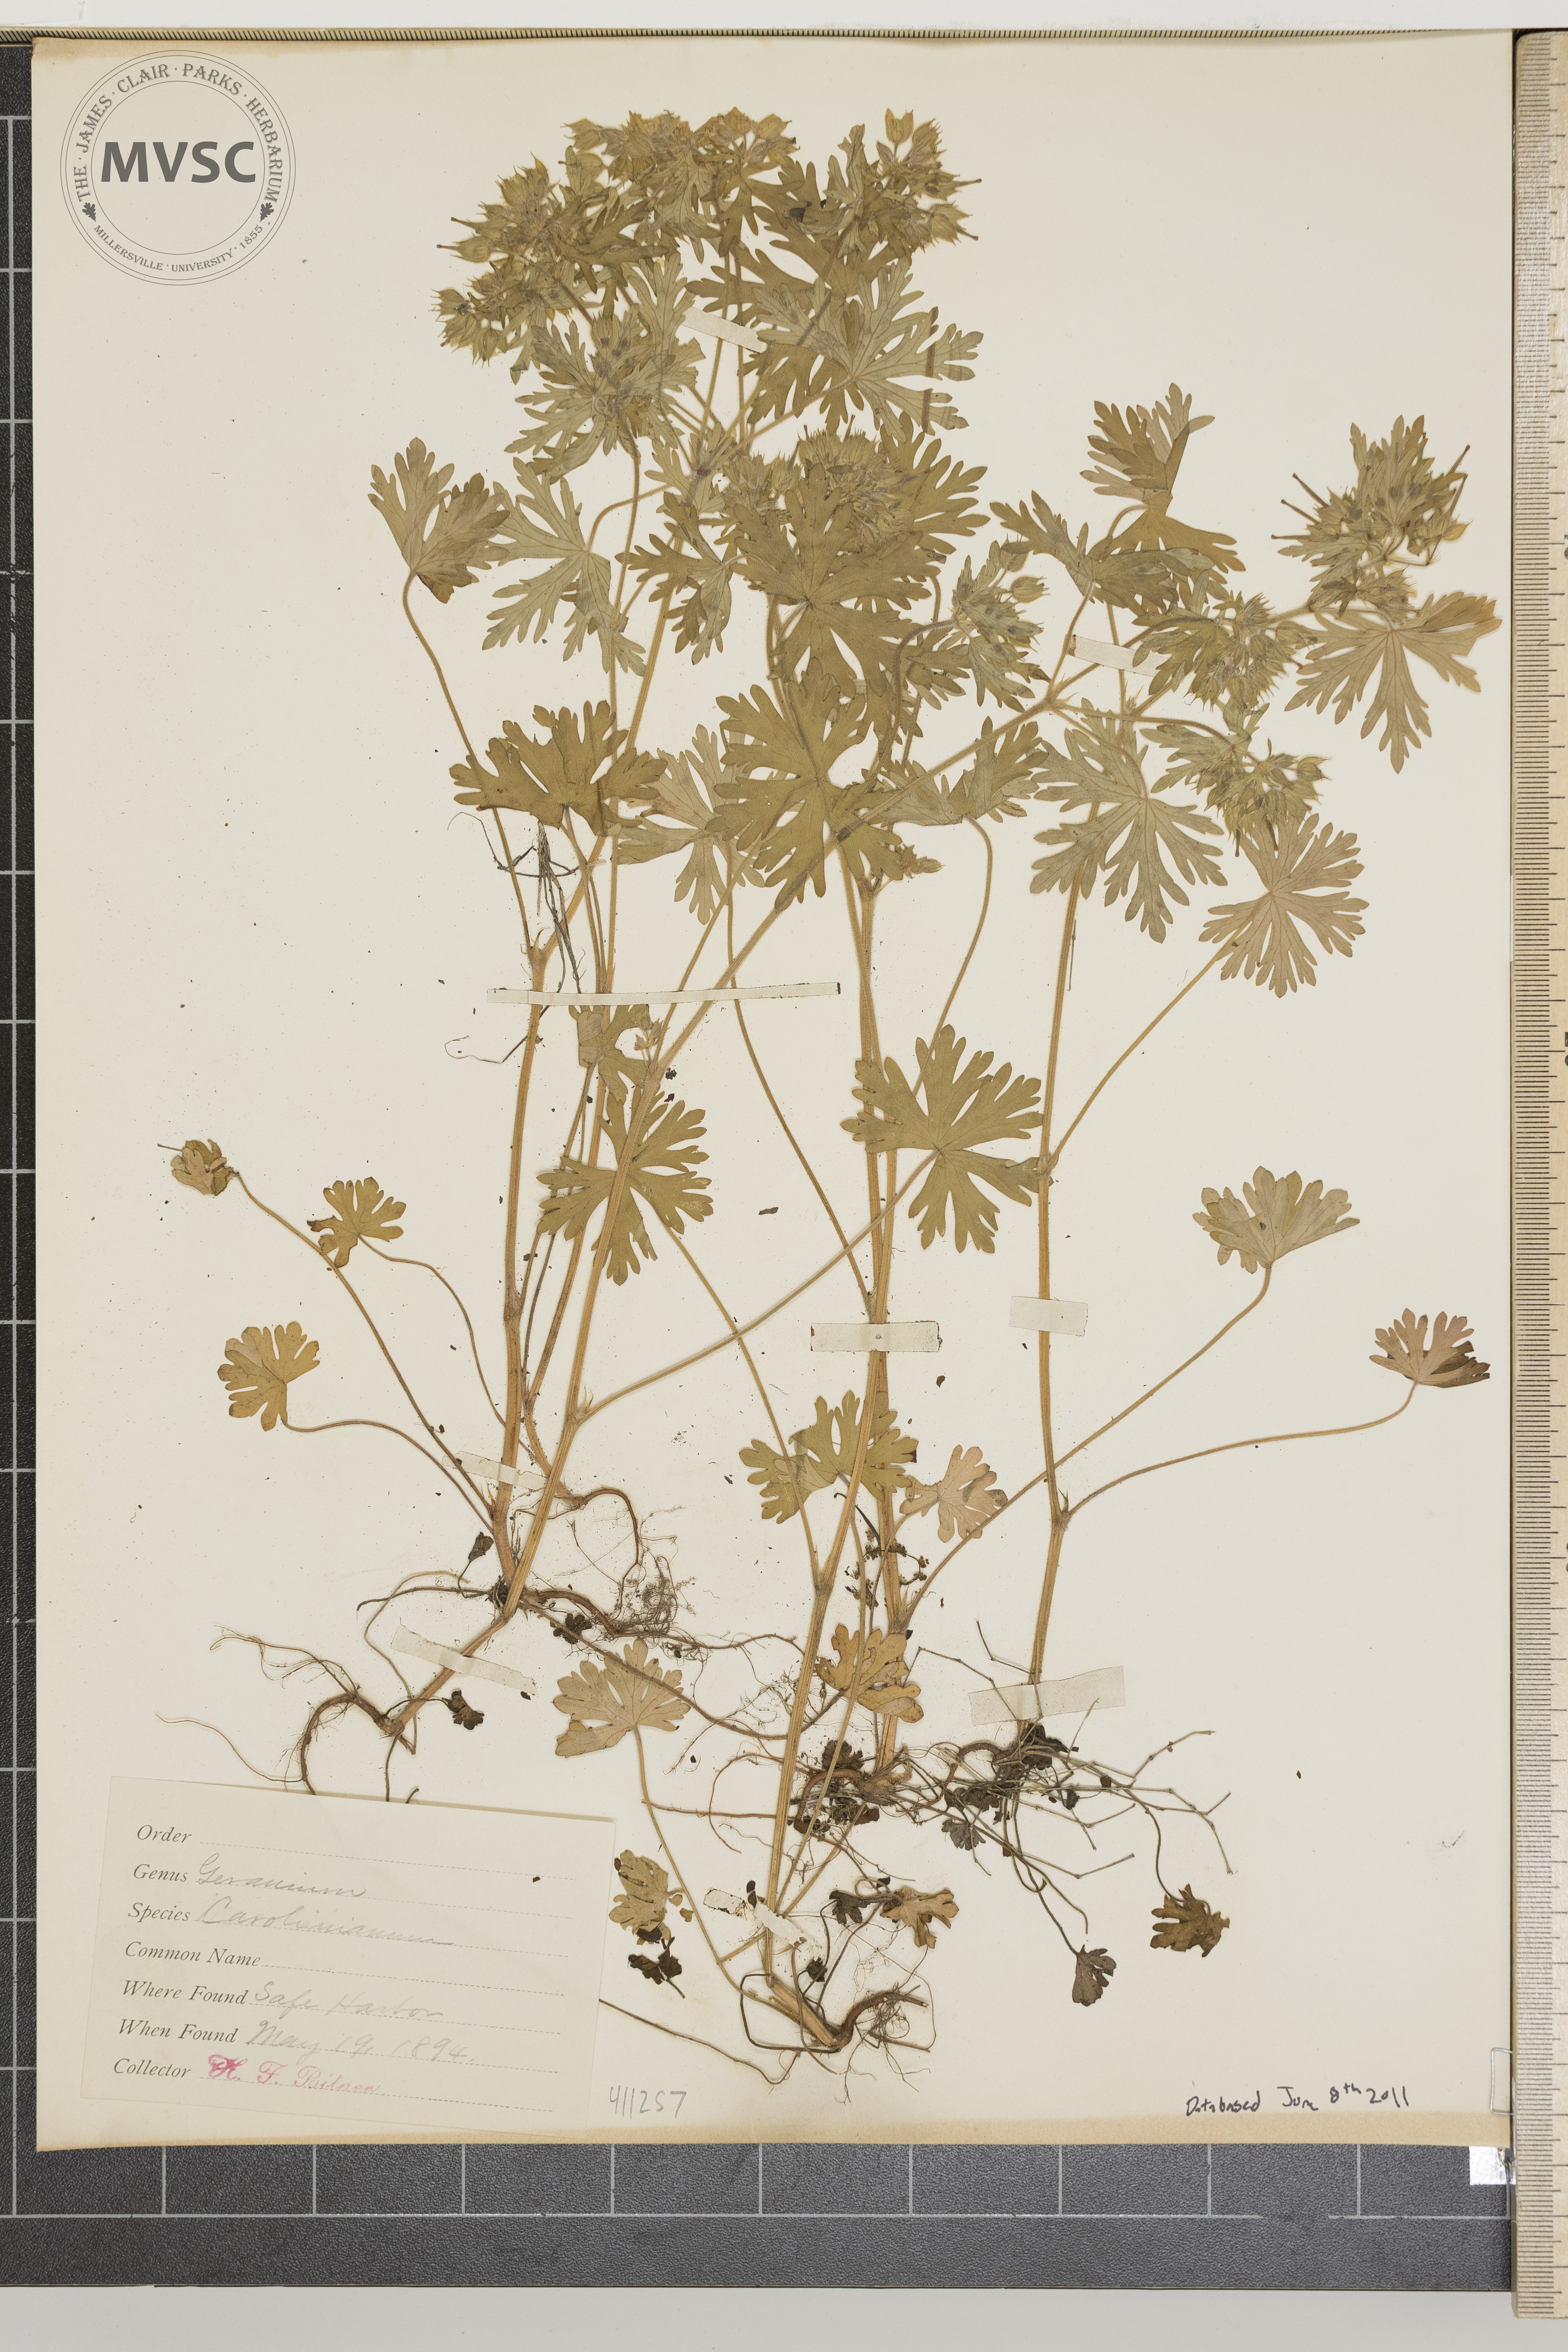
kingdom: Plantae
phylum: Tracheophyta
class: Magnoliopsida
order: Geraniales
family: Geraniaceae
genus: Geranium
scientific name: Geranium carolinianum
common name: Carolina crane's-bill
